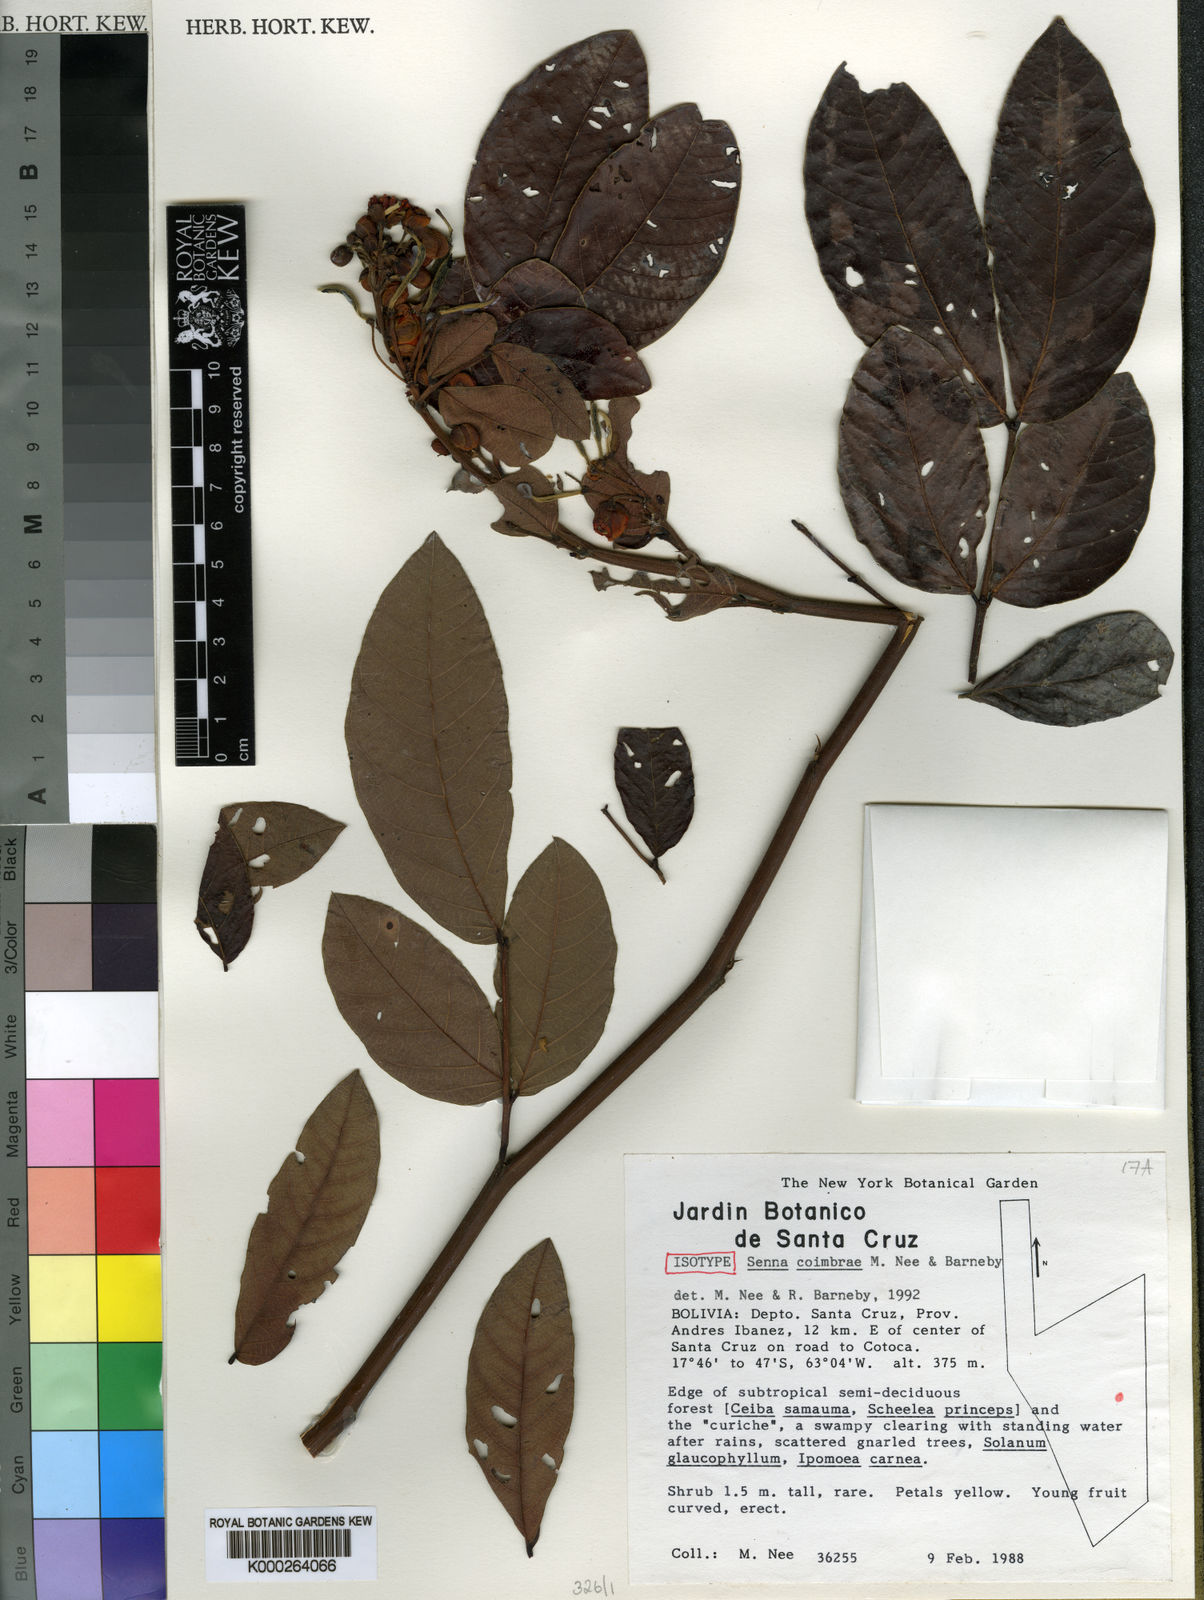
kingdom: Plantae
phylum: Tracheophyta
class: Magnoliopsida
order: Fabales
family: Fabaceae
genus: Senna
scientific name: Senna coimbrae
